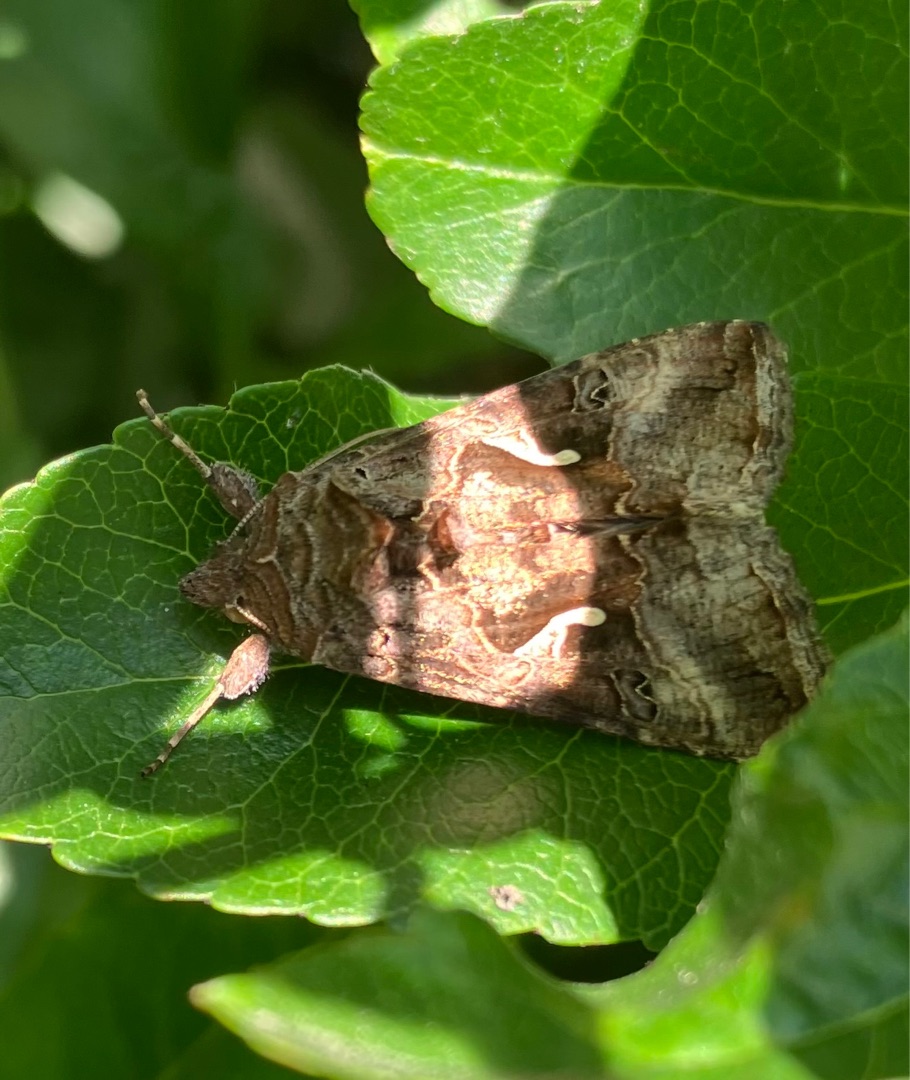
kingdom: Animalia
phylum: Arthropoda
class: Insecta
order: Lepidoptera
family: Noctuidae
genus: Autographa
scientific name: Autographa gamma
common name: Gammaugle
